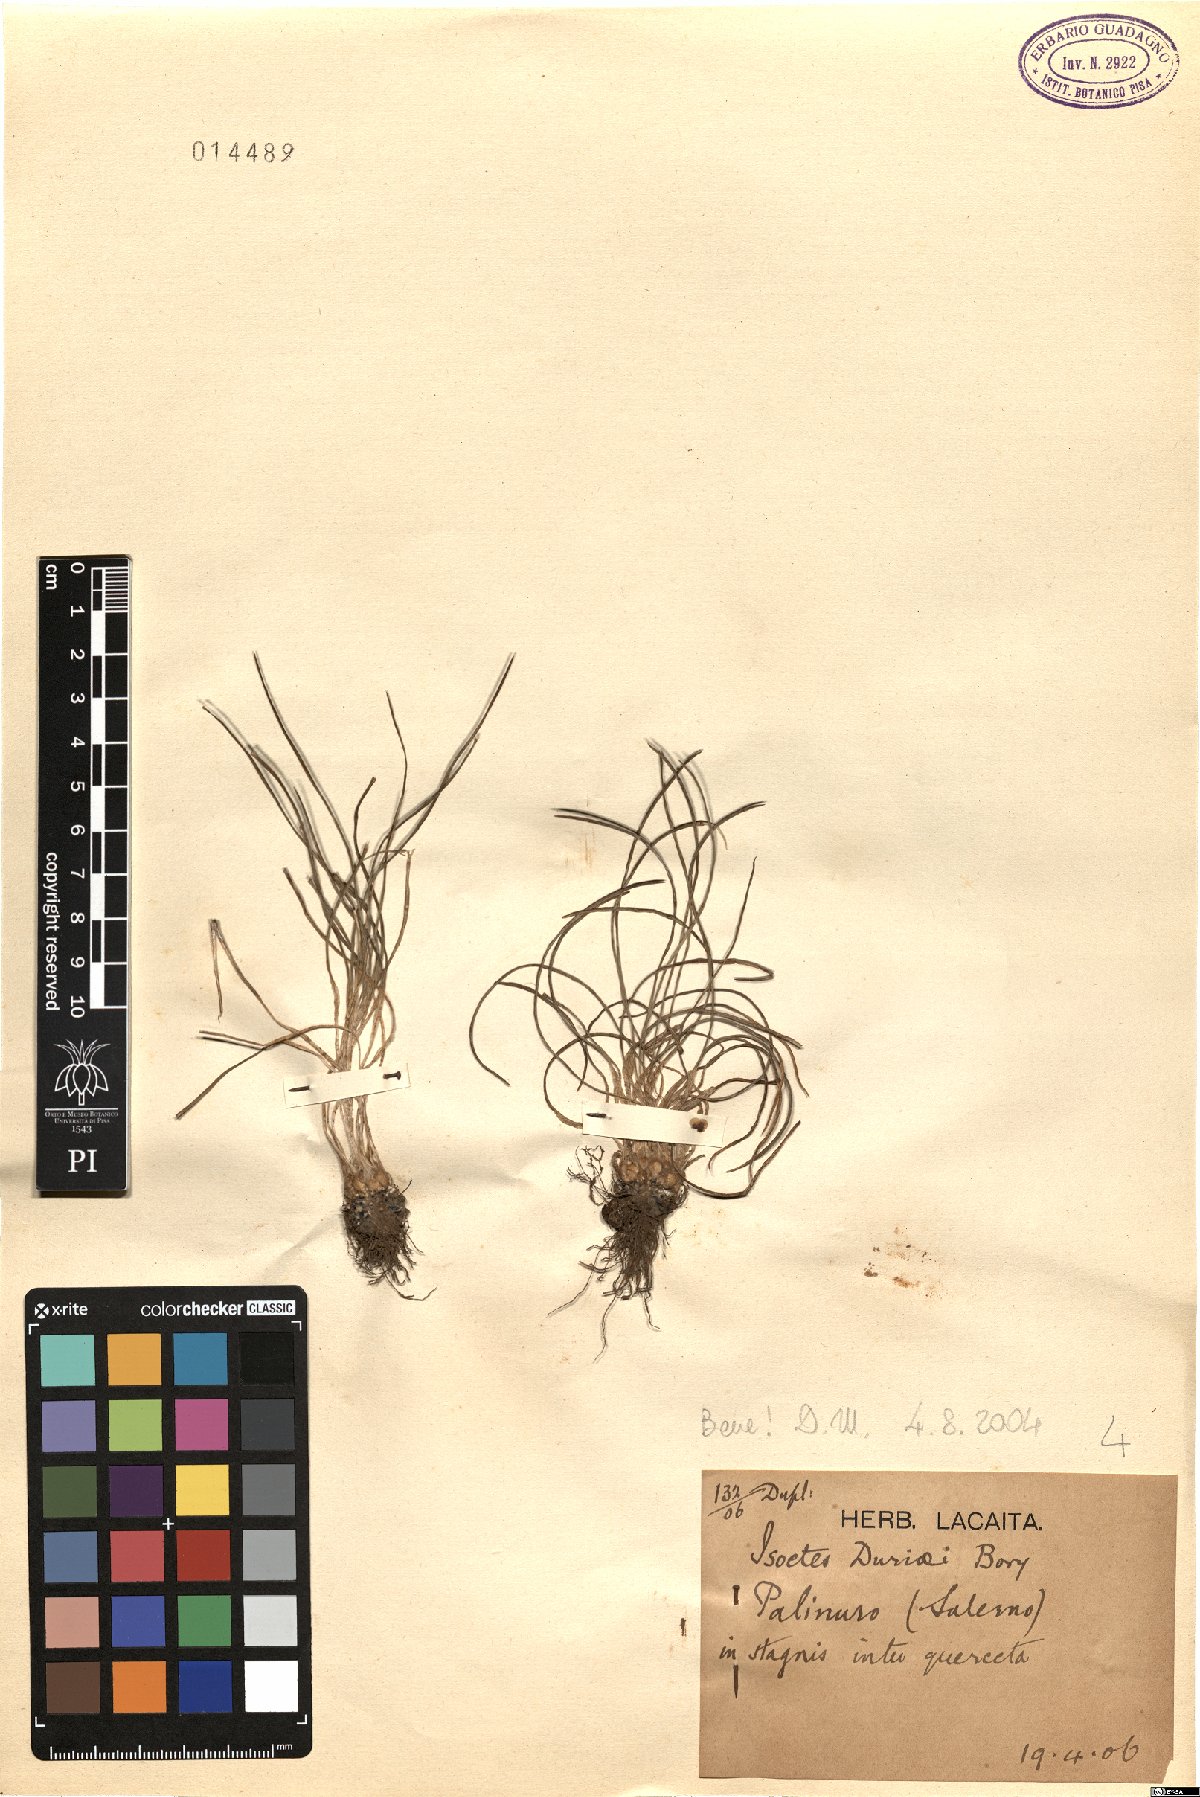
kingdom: Plantae
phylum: Tracheophyta
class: Lycopodiopsida
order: Isoetales
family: Isoetaceae
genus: Isoetes
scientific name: Isoetes duriei
